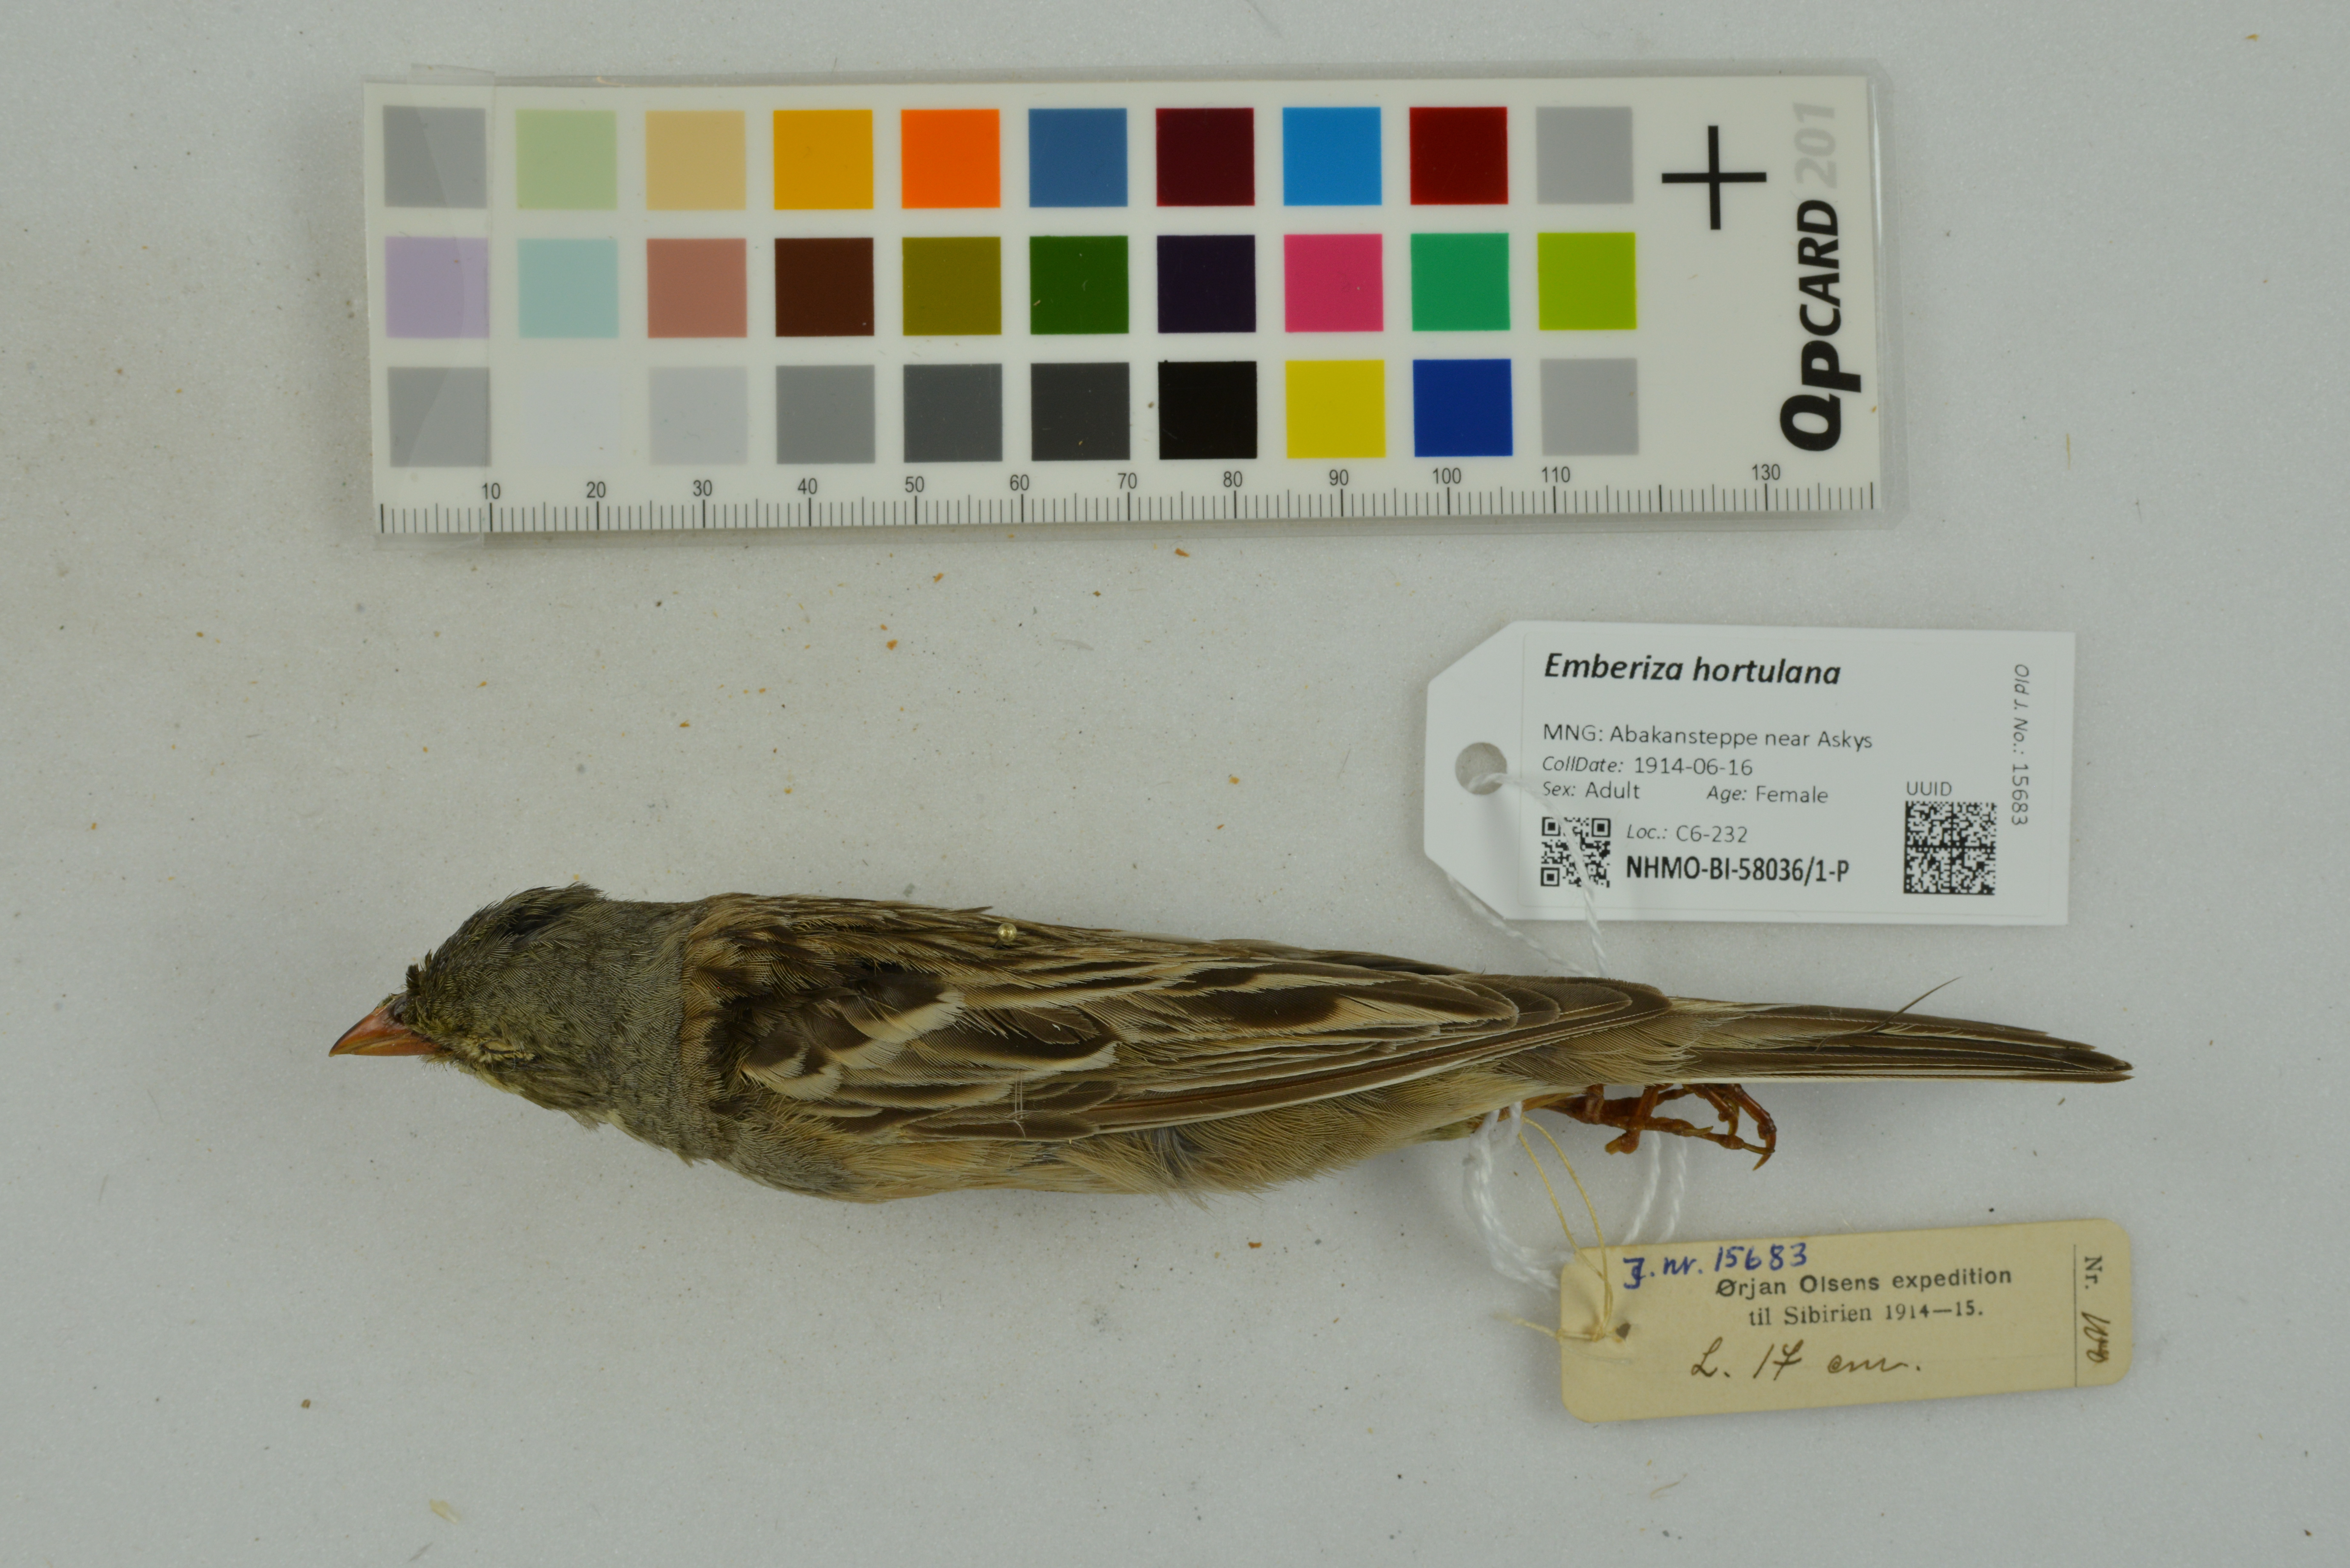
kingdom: Animalia
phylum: Chordata
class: Aves
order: Passeriformes
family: Emberizidae
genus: Emberiza
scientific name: Emberiza hortulana
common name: Ortolan bunting
